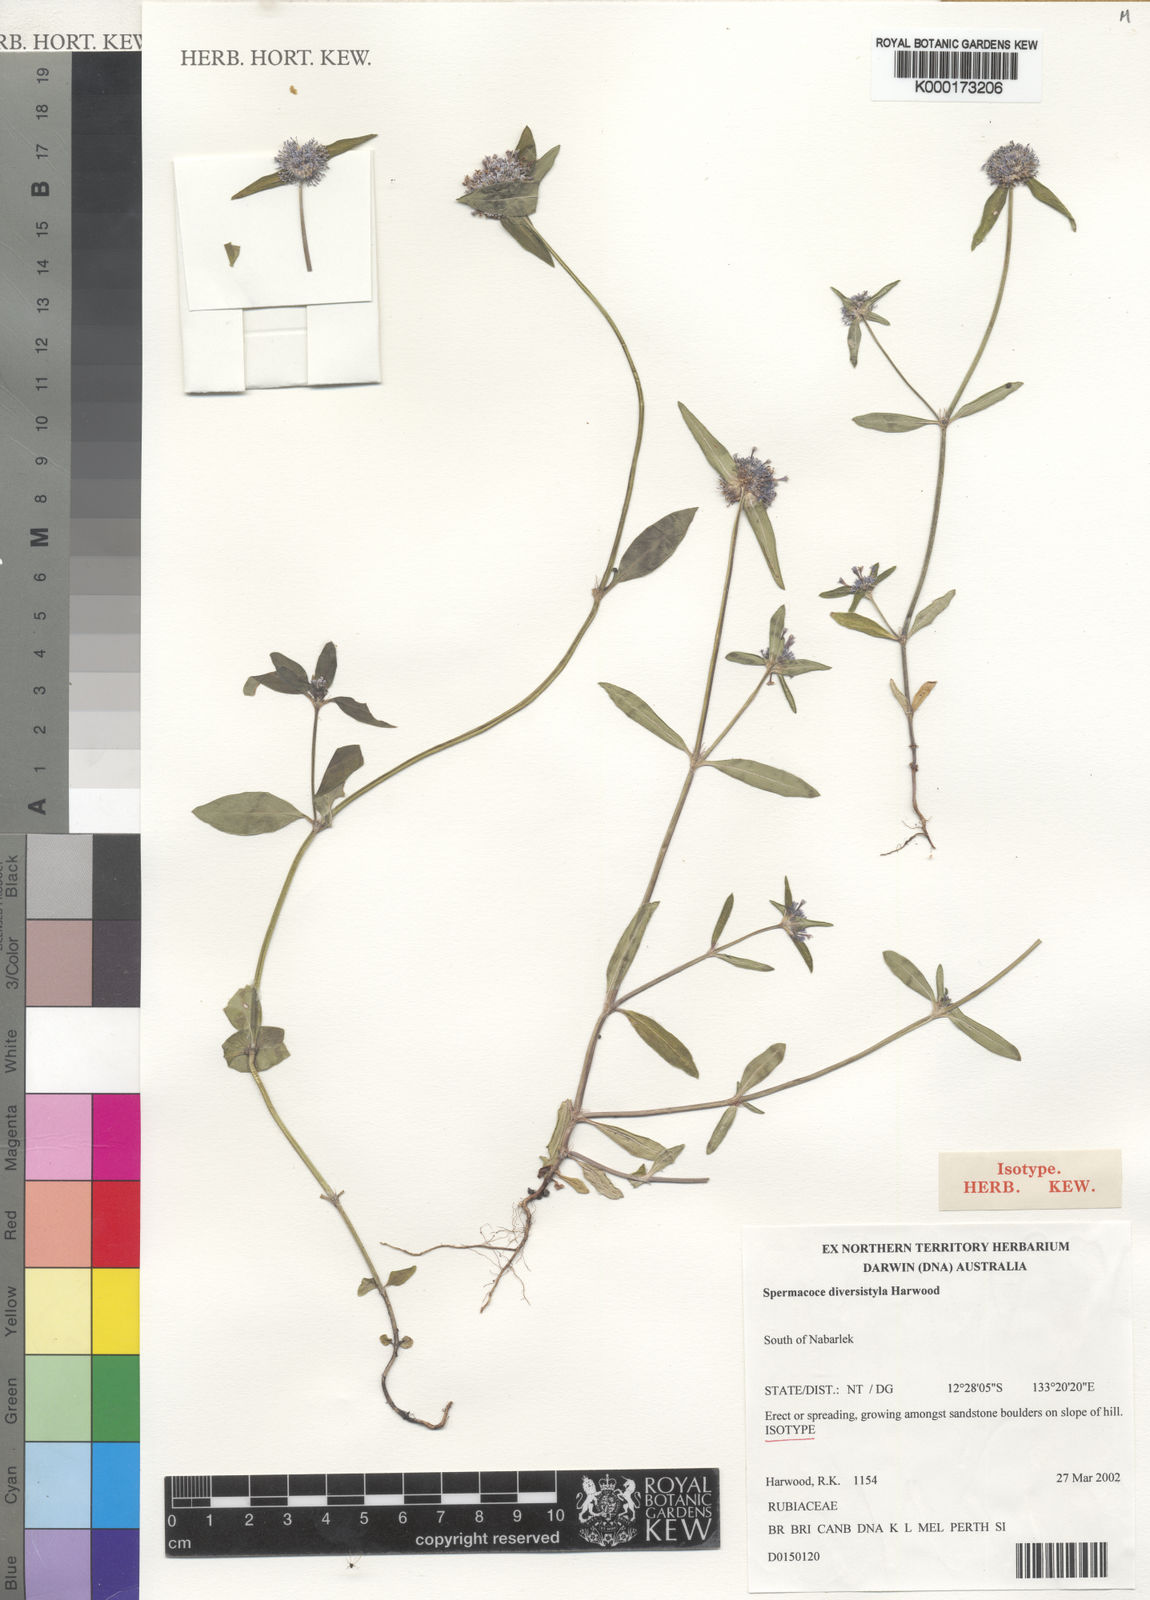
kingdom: Plantae
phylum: Tracheophyta
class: Magnoliopsida
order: Gentianales
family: Rubiaceae
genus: Spermacoce
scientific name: Spermacoce diversistyla
